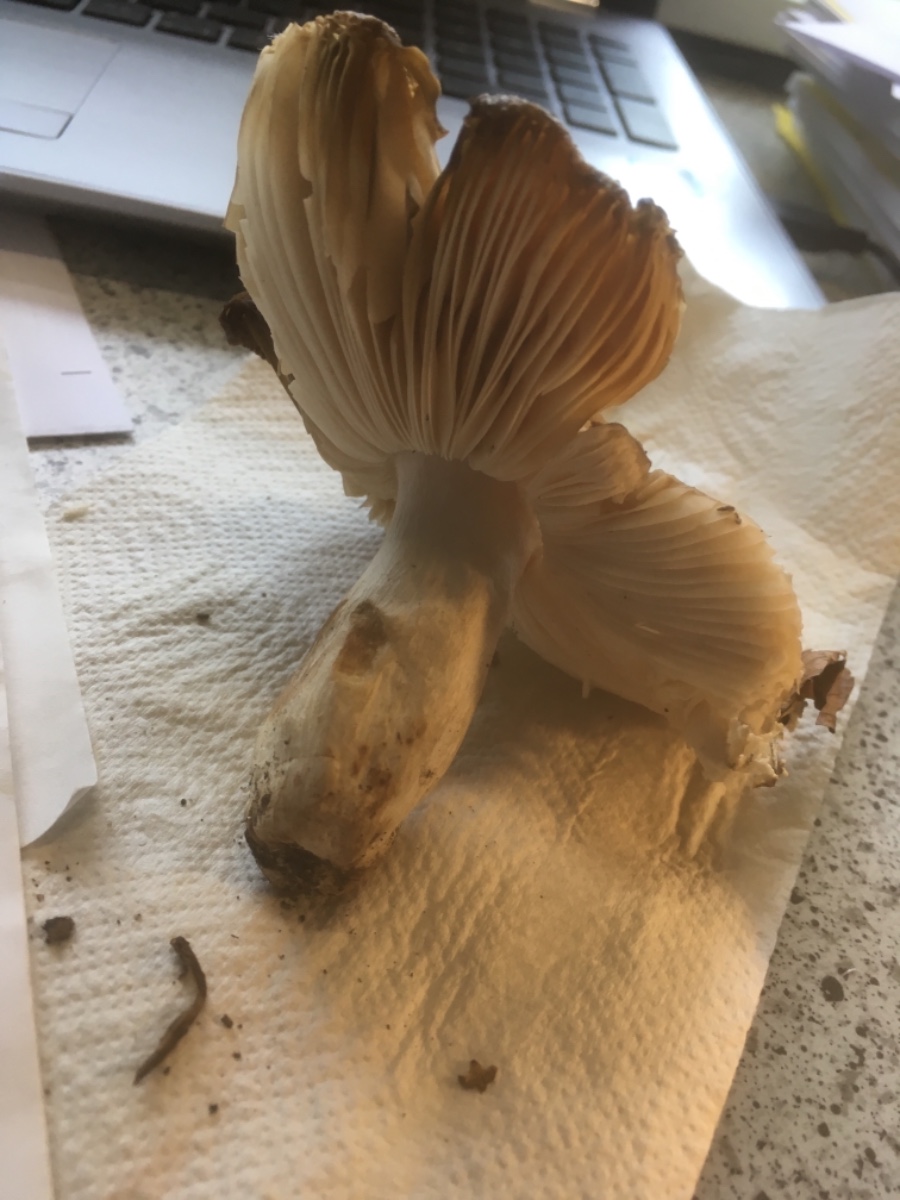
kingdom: Fungi
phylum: Basidiomycota
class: Agaricomycetes
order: Russulales
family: Russulaceae
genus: Russula
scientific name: Russula
